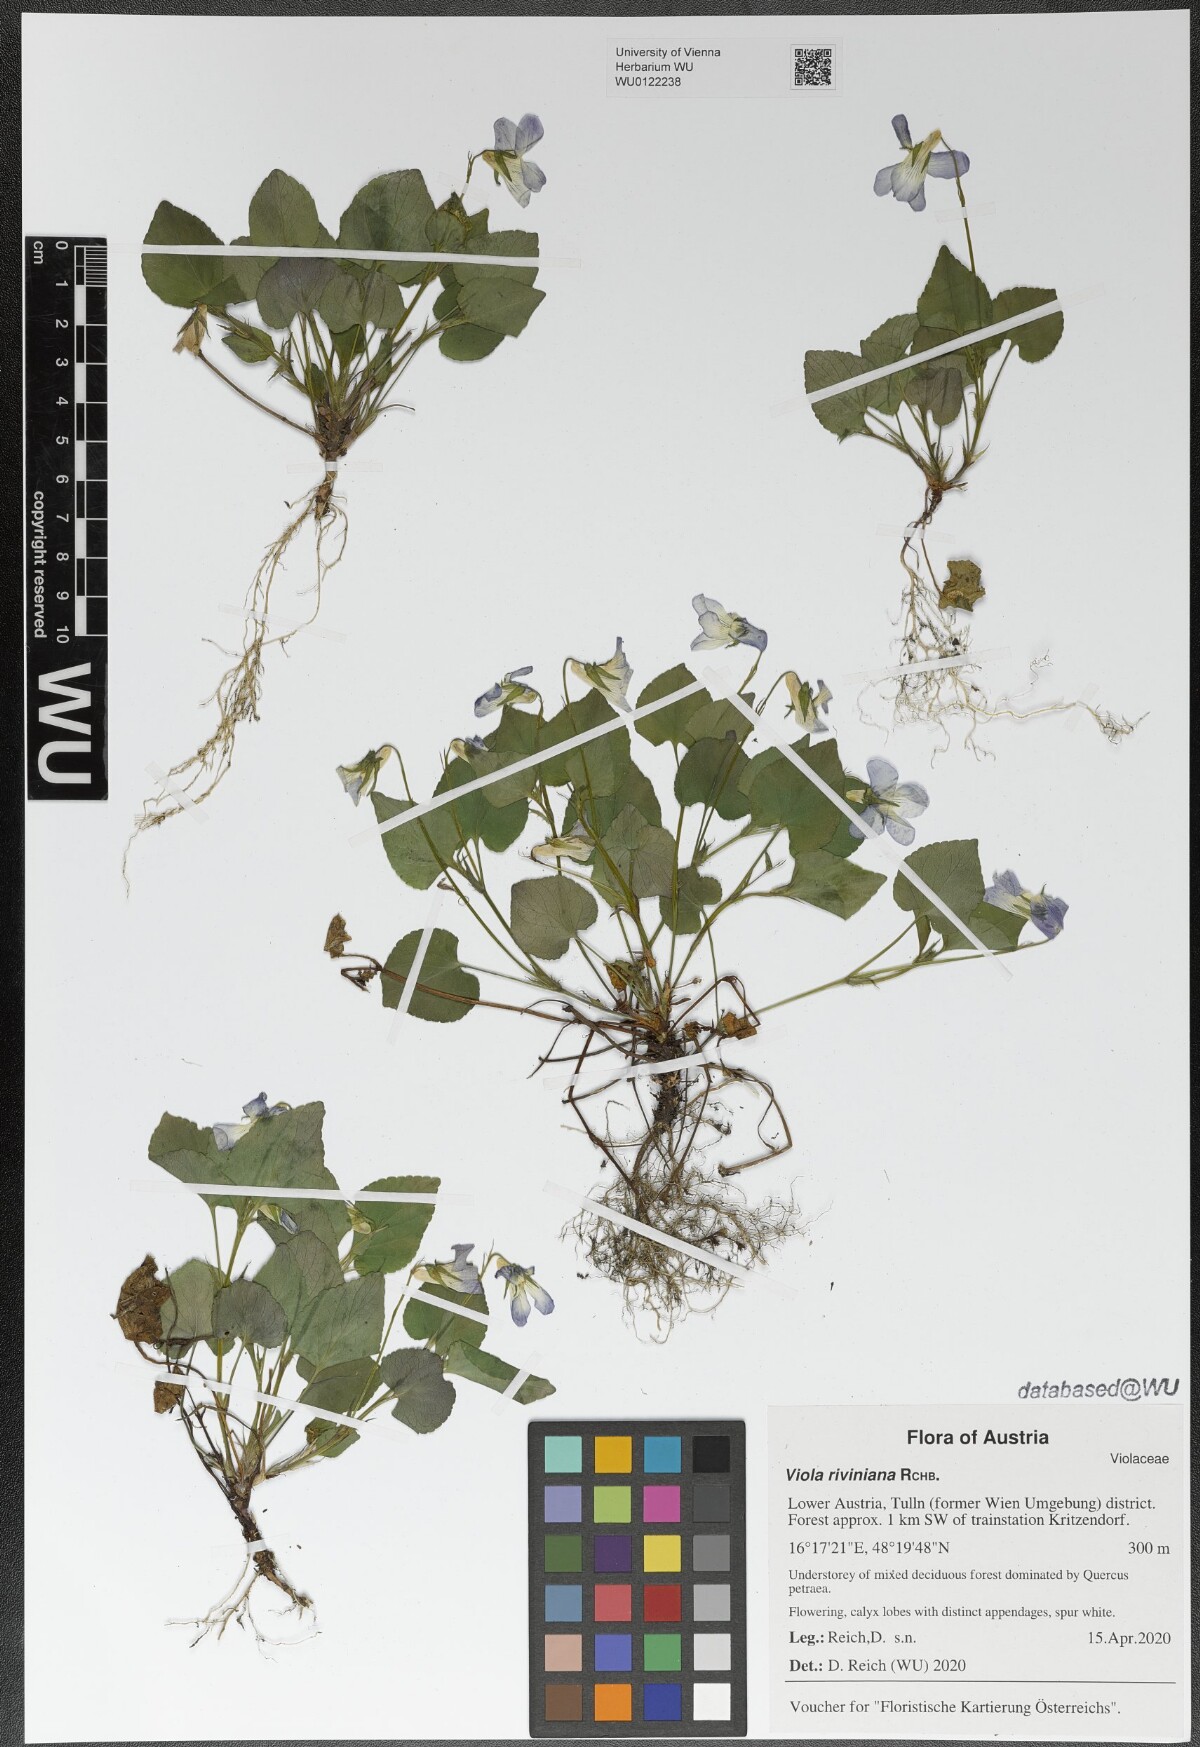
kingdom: Plantae
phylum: Tracheophyta
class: Magnoliopsida
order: Malpighiales
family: Violaceae
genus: Viola
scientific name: Viola riviniana
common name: Common dog-violet
